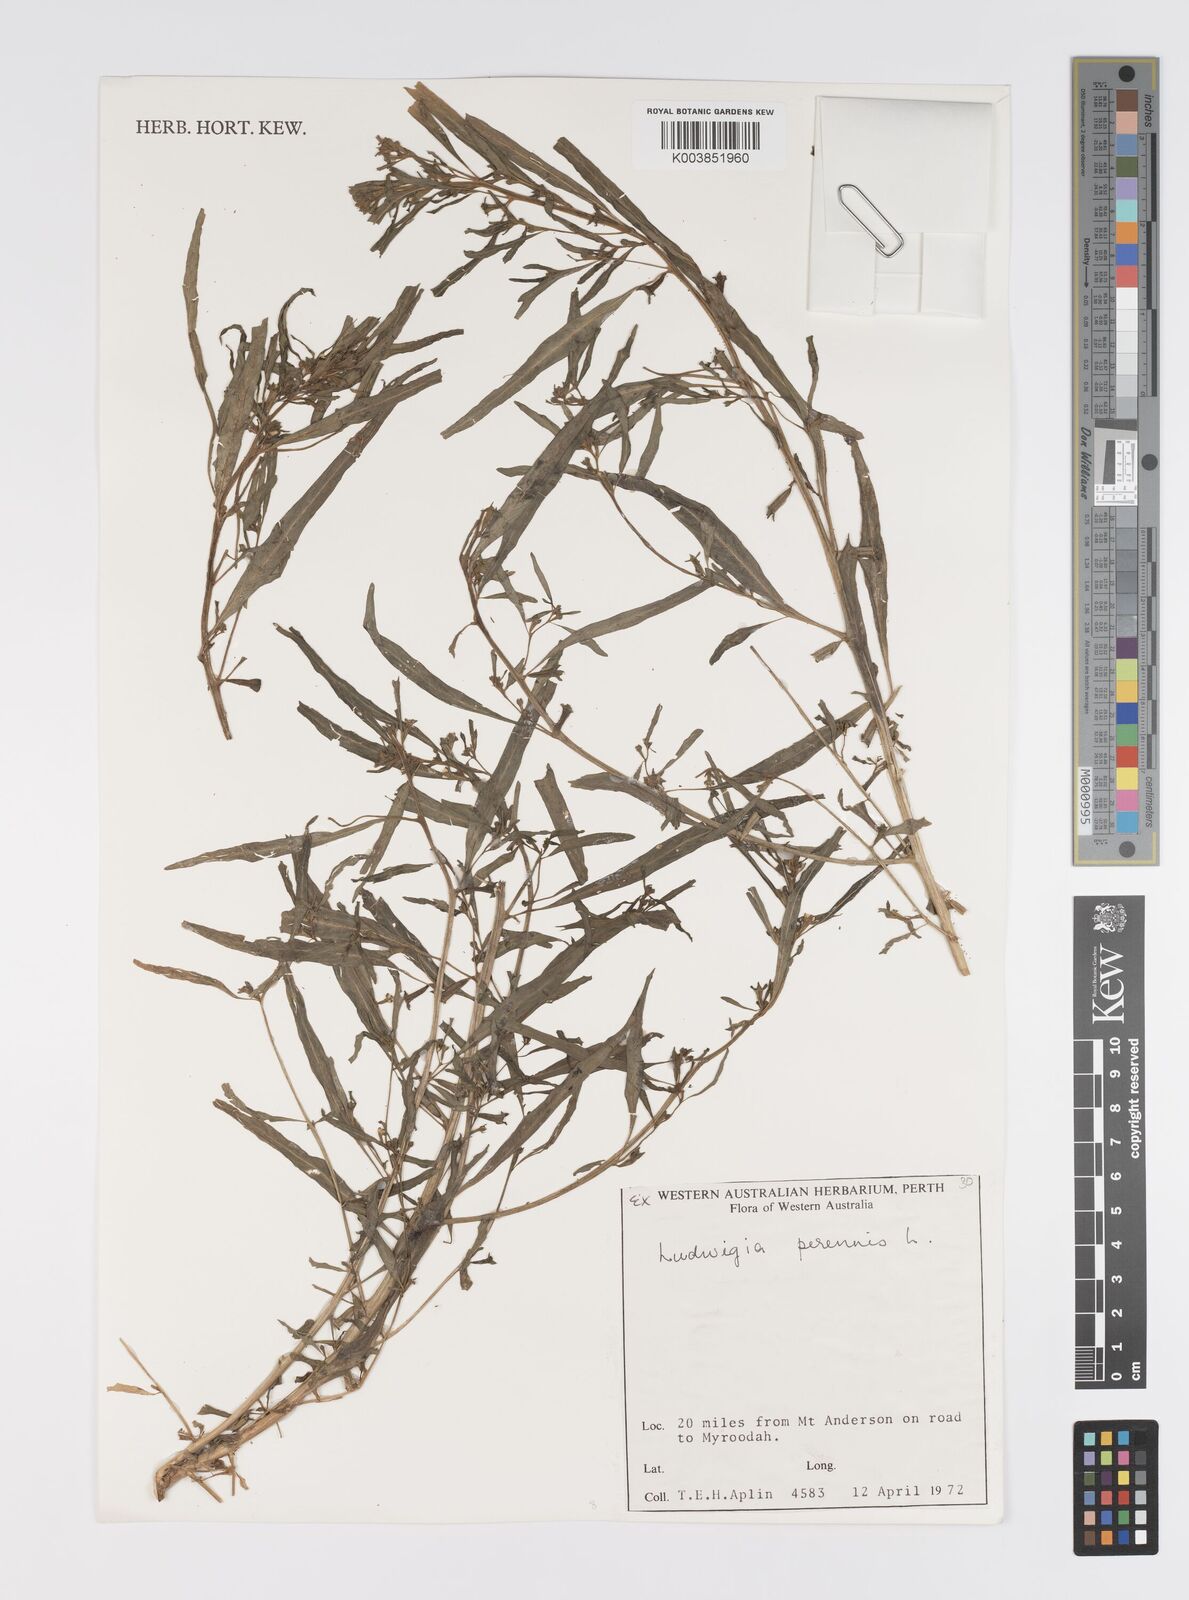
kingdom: Plantae
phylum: Tracheophyta
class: Magnoliopsida
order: Myrtales
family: Onagraceae
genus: Ludwigia
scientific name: Ludwigia perennis
